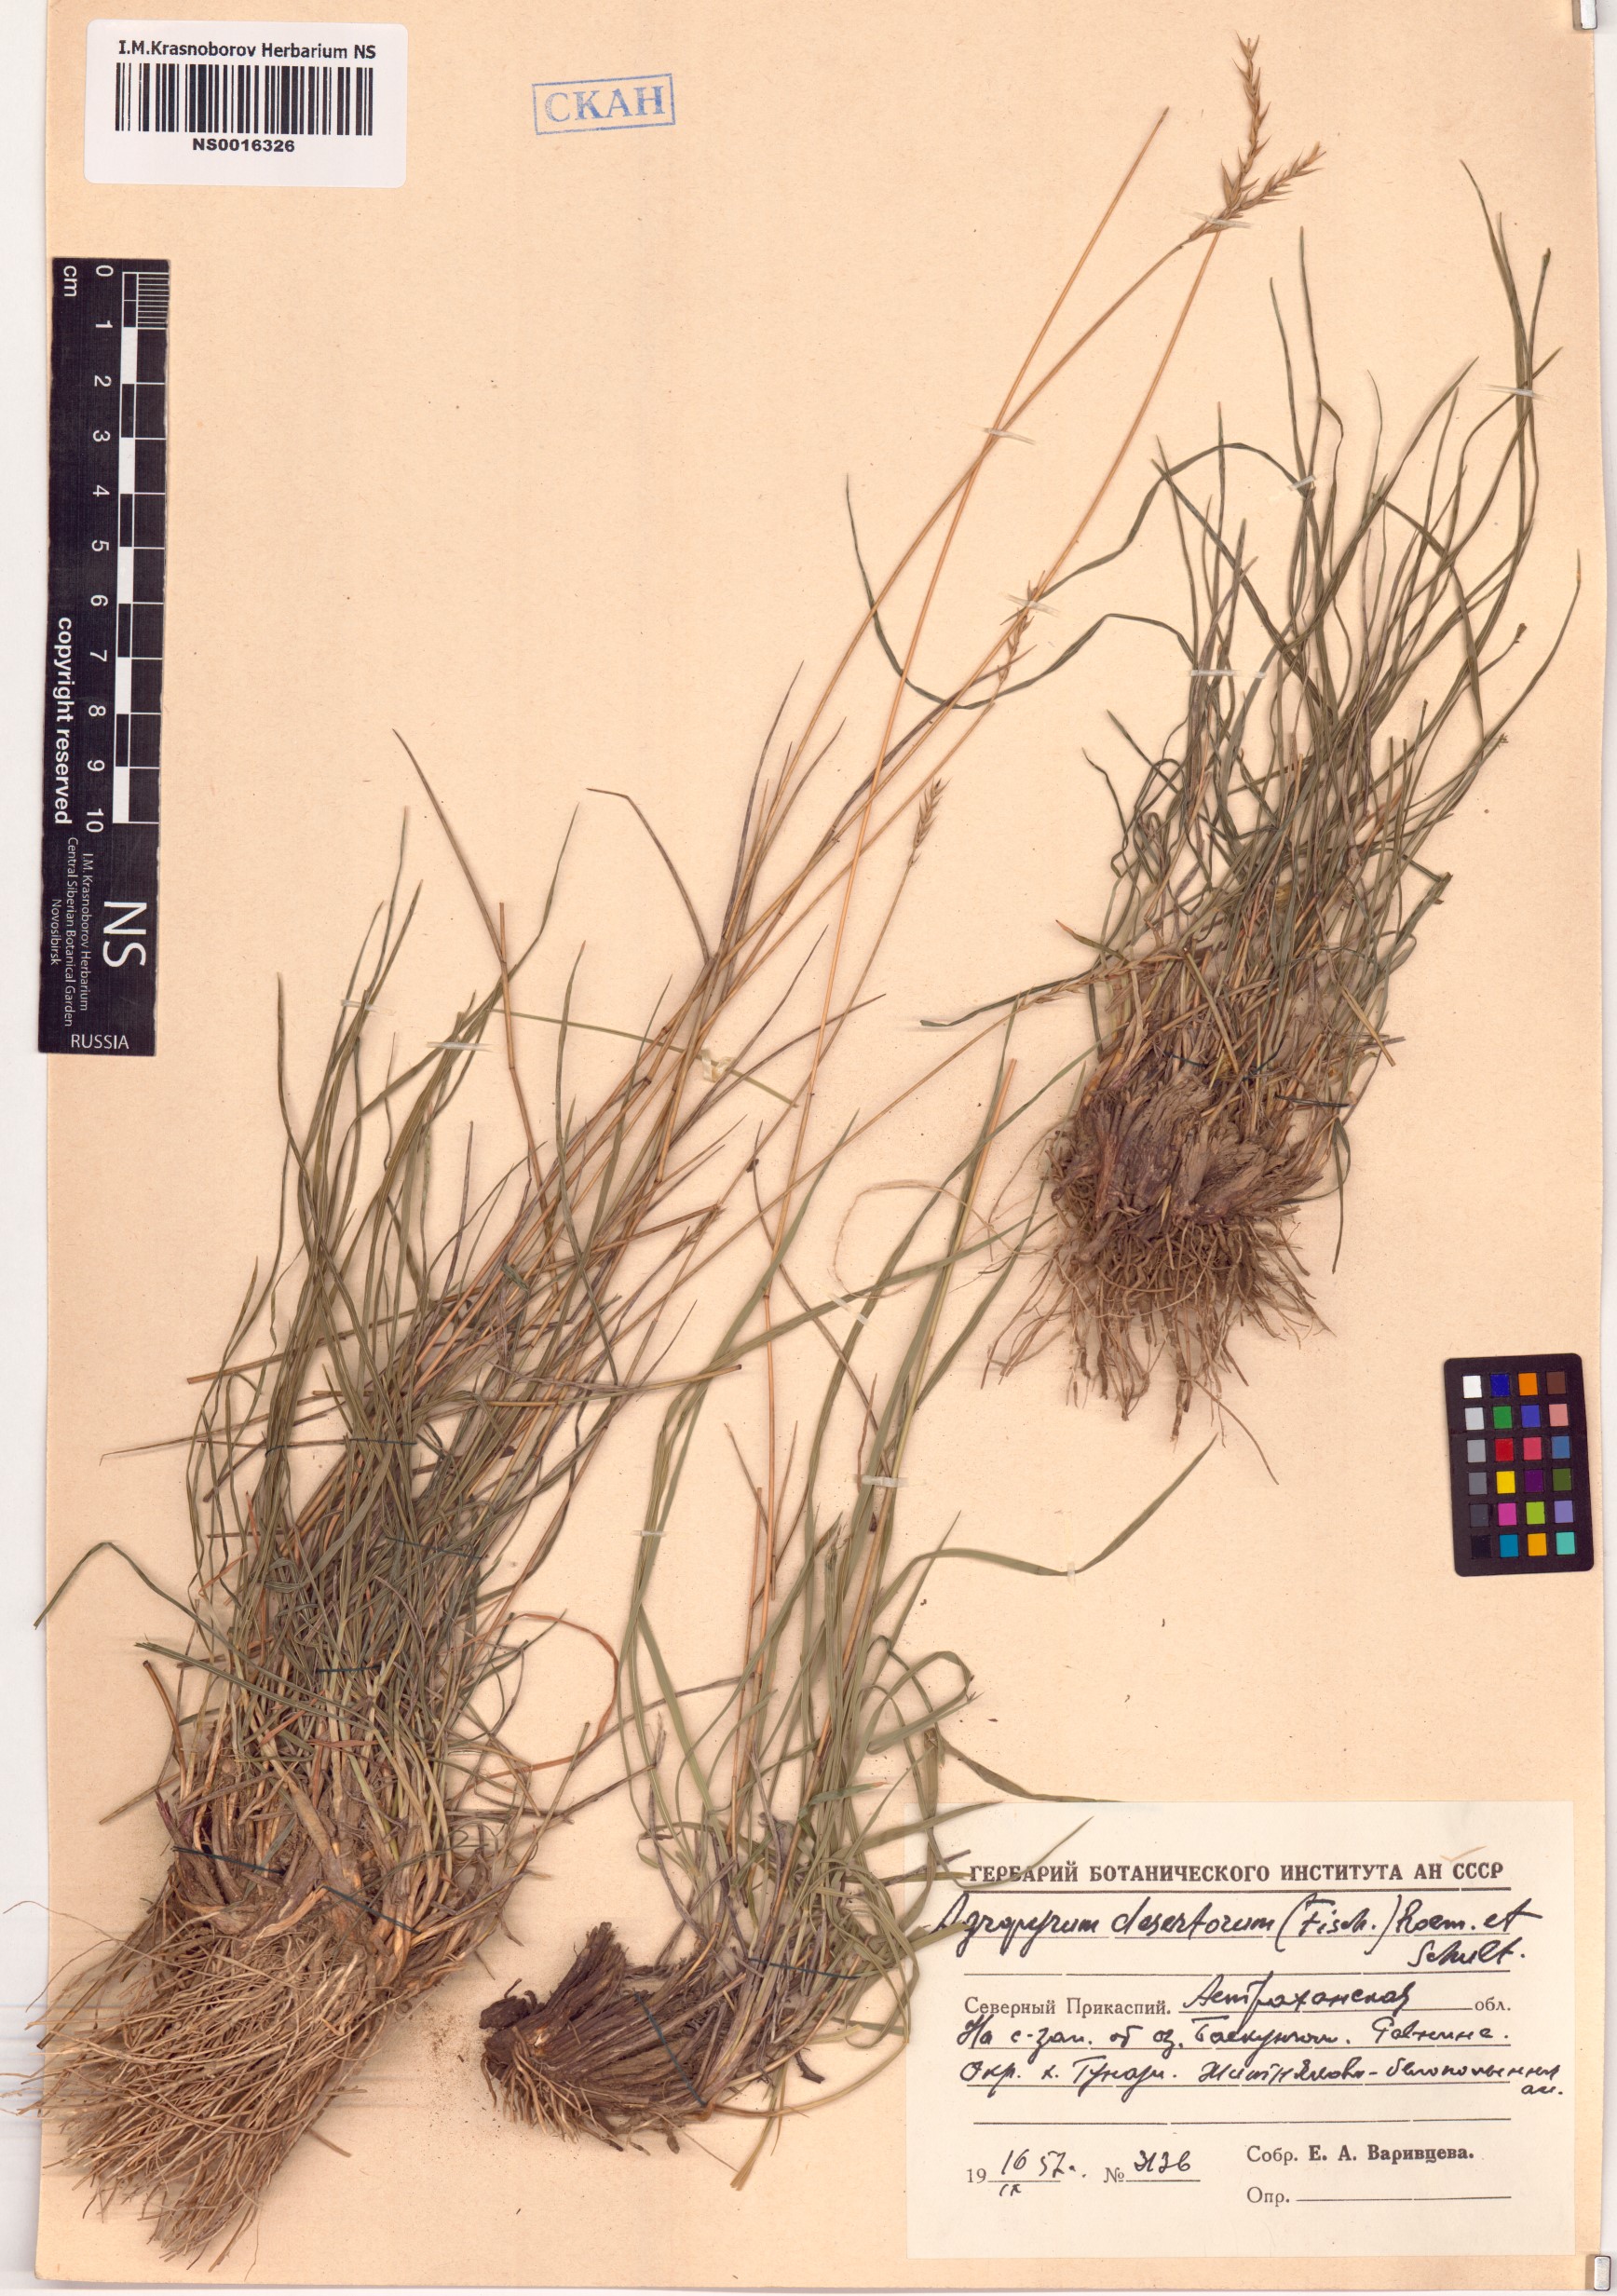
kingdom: Plantae
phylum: Tracheophyta
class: Liliopsida
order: Poales
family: Poaceae
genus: Agropyron
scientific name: Agropyron desertorum
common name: Desert wheatgrass
